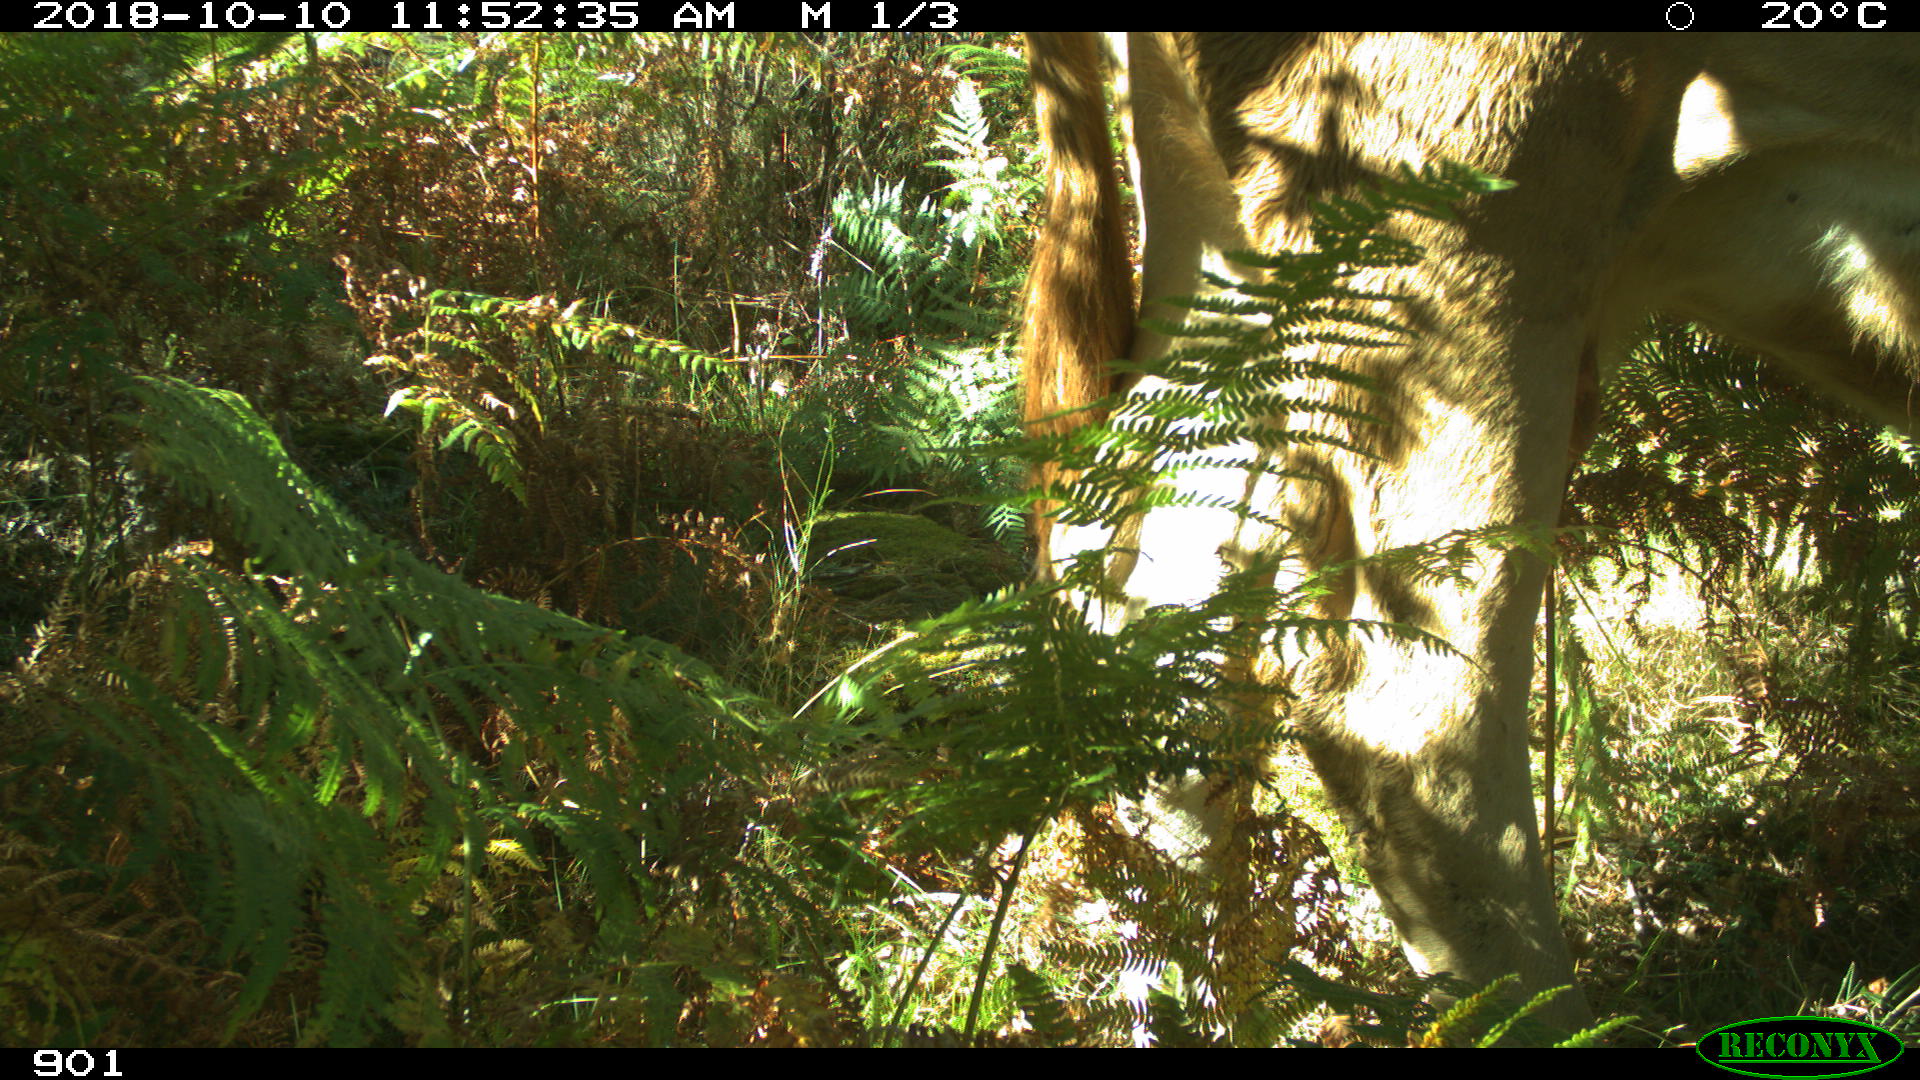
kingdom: Animalia
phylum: Chordata
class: Mammalia
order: Artiodactyla
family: Bovidae
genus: Bos
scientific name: Bos taurus
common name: Domesticated cattle
